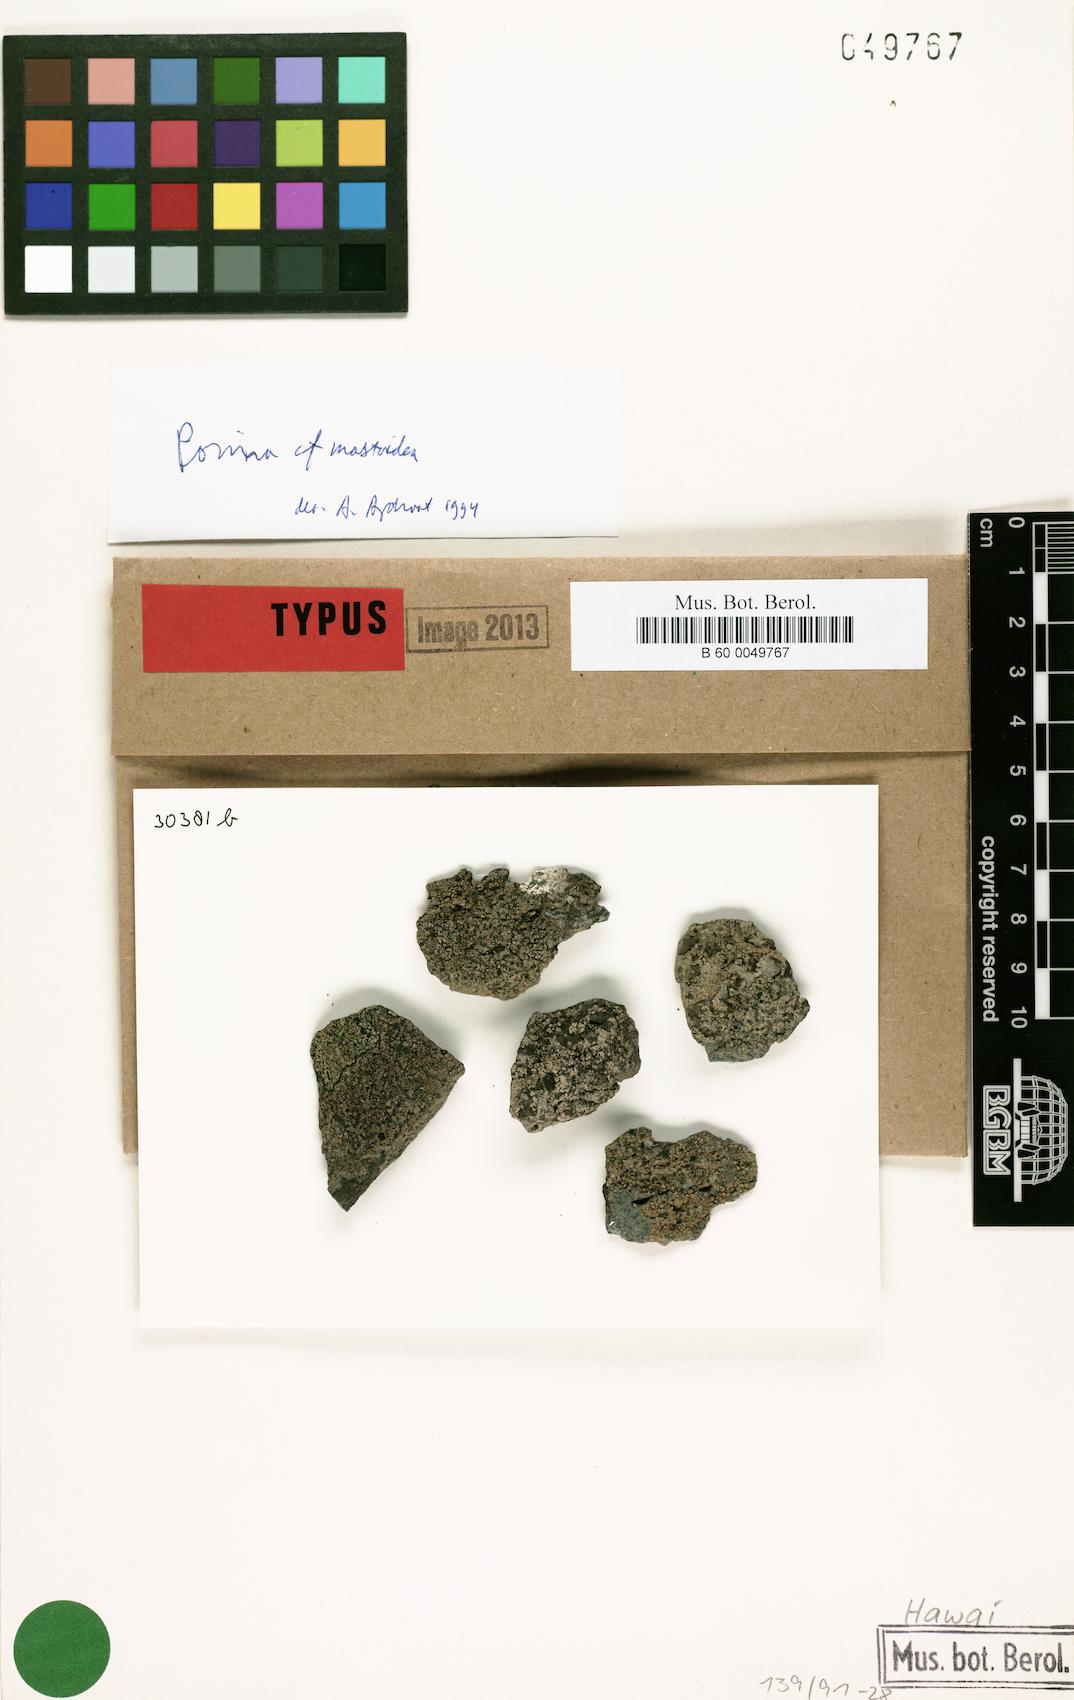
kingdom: Fungi
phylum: Ascomycota
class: Dothideomycetes
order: Monoblastiales
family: Monoblastiaceae
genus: Anisomeridium
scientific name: Anisomeridium
